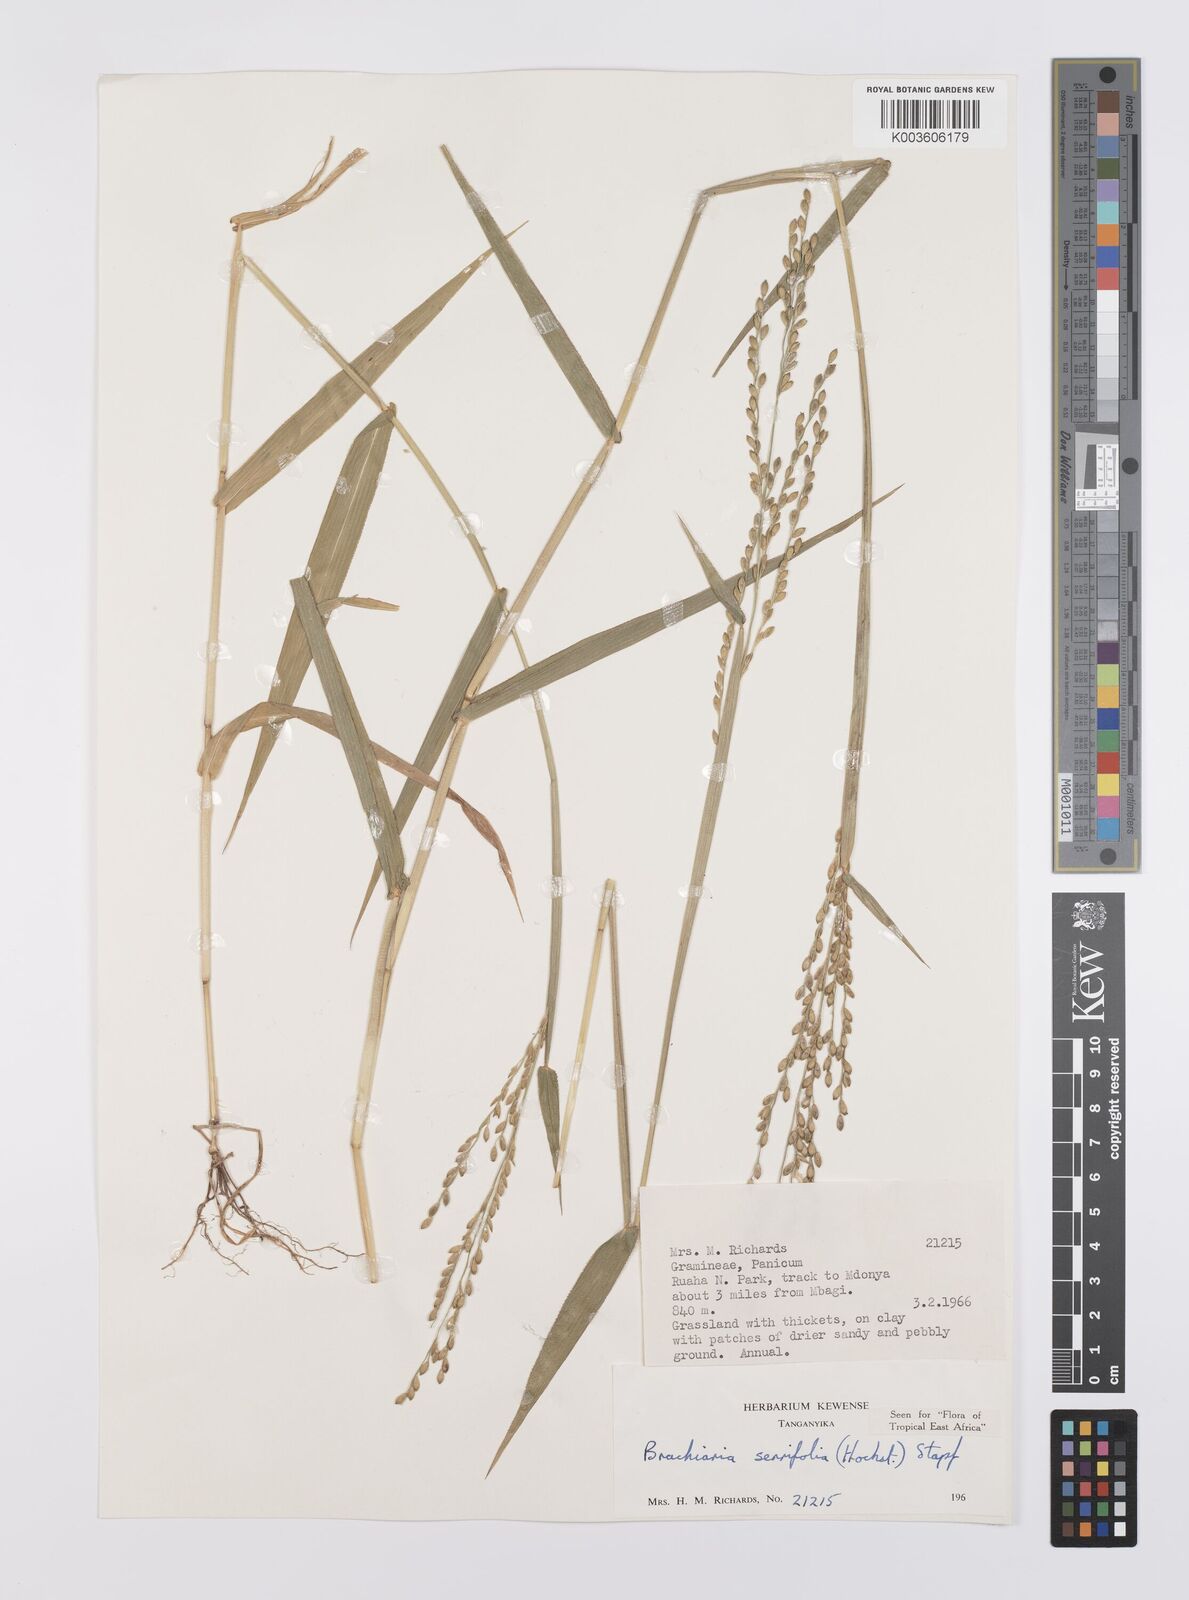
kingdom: Plantae
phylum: Tracheophyta
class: Liliopsida
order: Poales
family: Poaceae
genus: Urochloa
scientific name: Urochloa serrifolia
